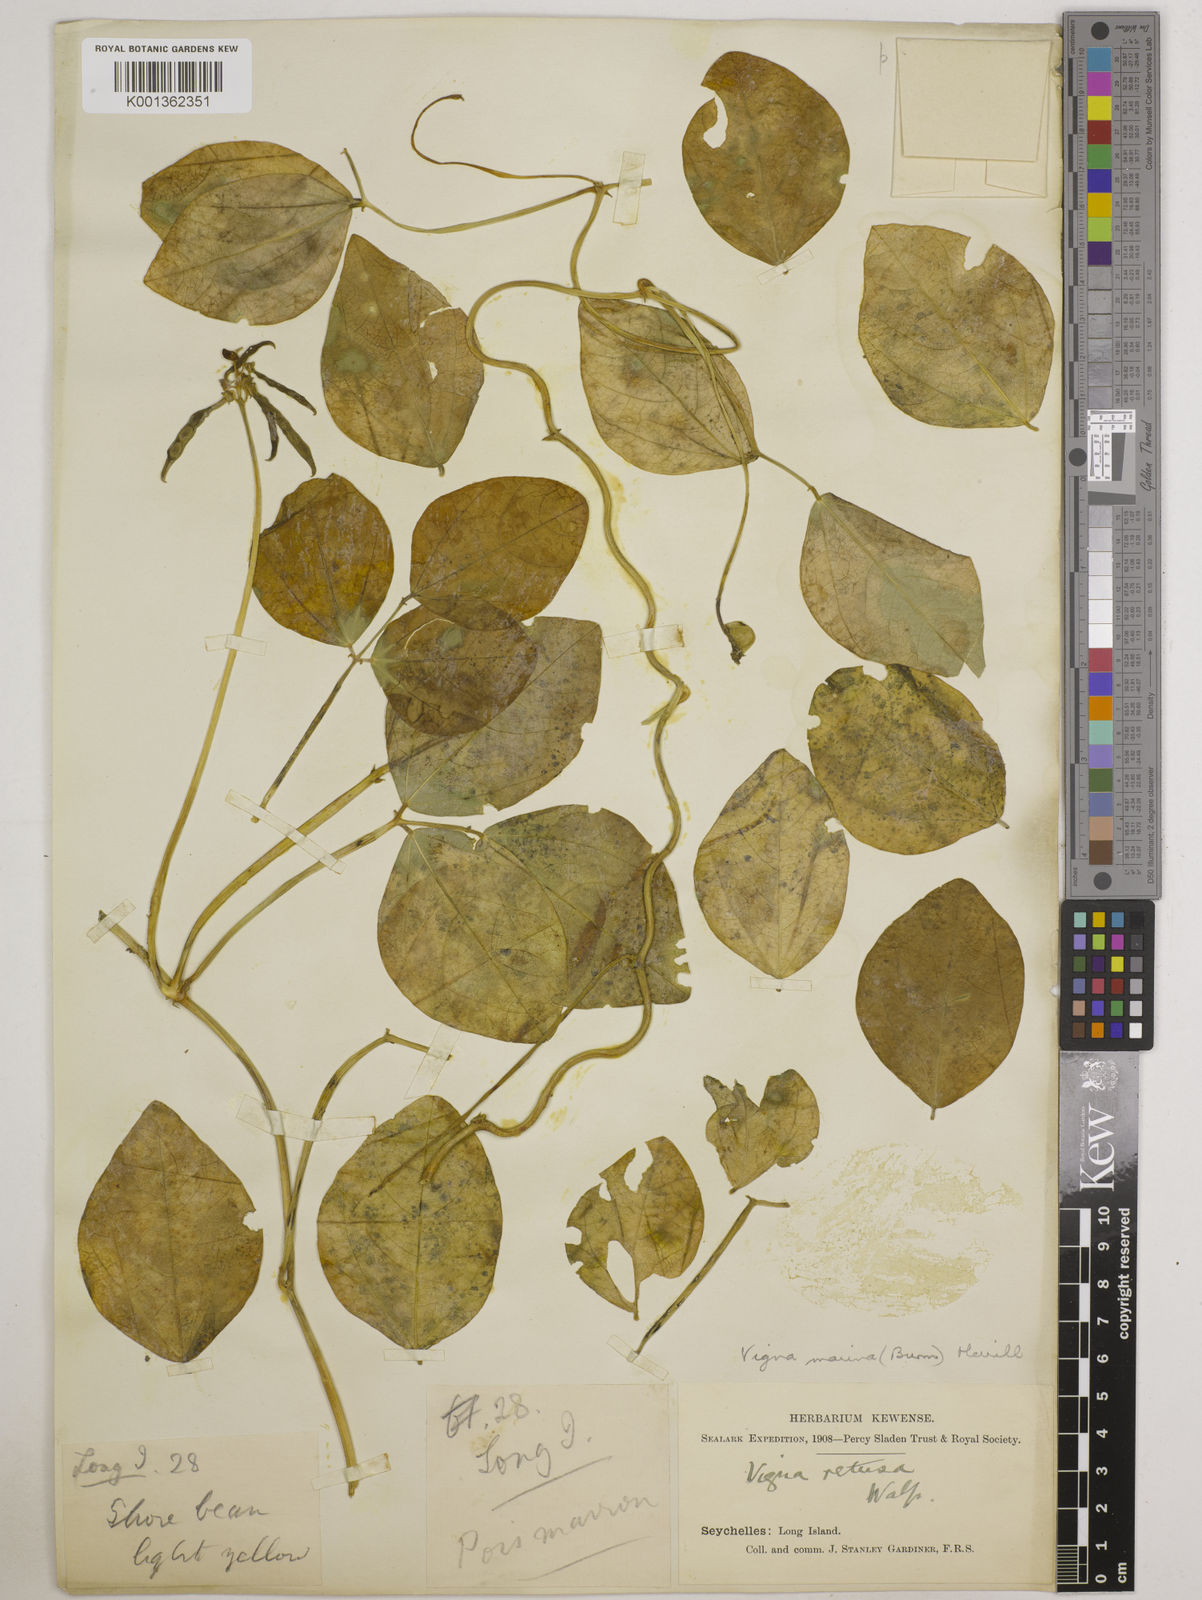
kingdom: Plantae
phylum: Tracheophyta
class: Magnoliopsida
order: Fabales
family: Fabaceae
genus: Vigna
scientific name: Vigna marina
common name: Dune-bean
